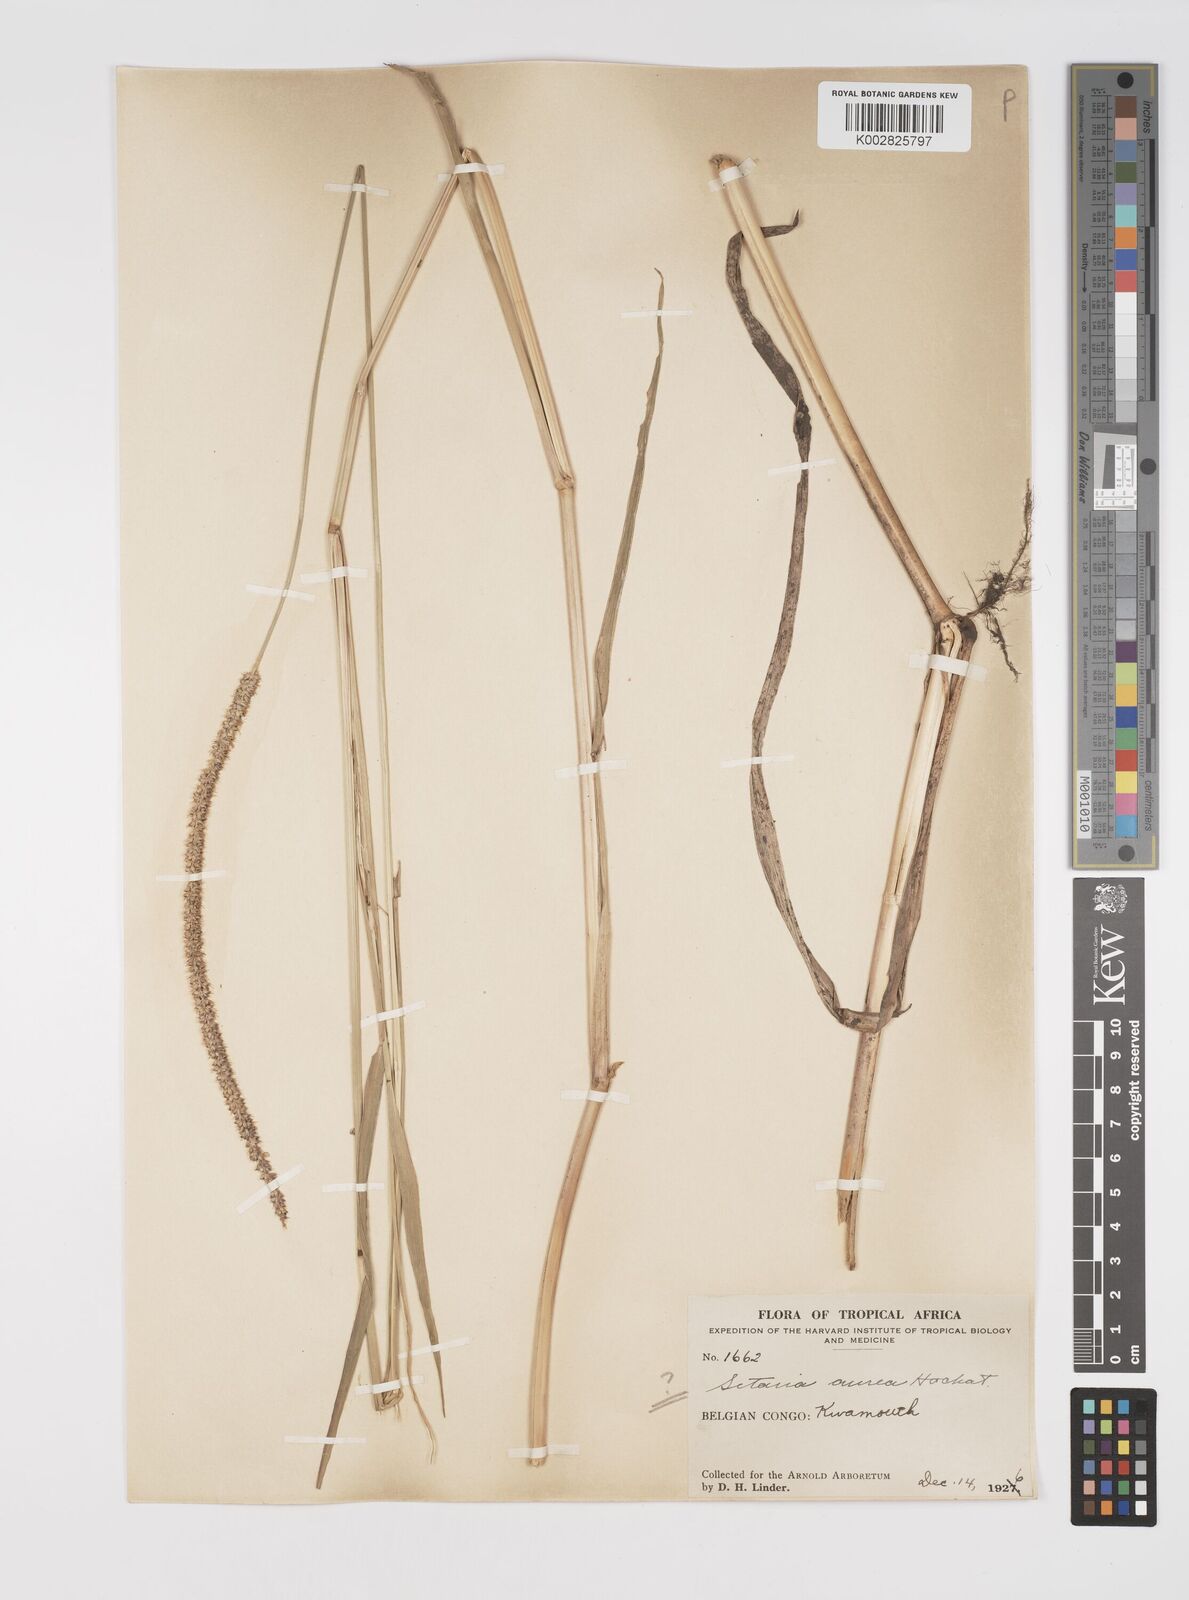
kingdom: Plantae
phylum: Tracheophyta
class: Liliopsida
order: Poales
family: Poaceae
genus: Setaria
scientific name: Setaria sphacelata
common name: African bristlegrass
